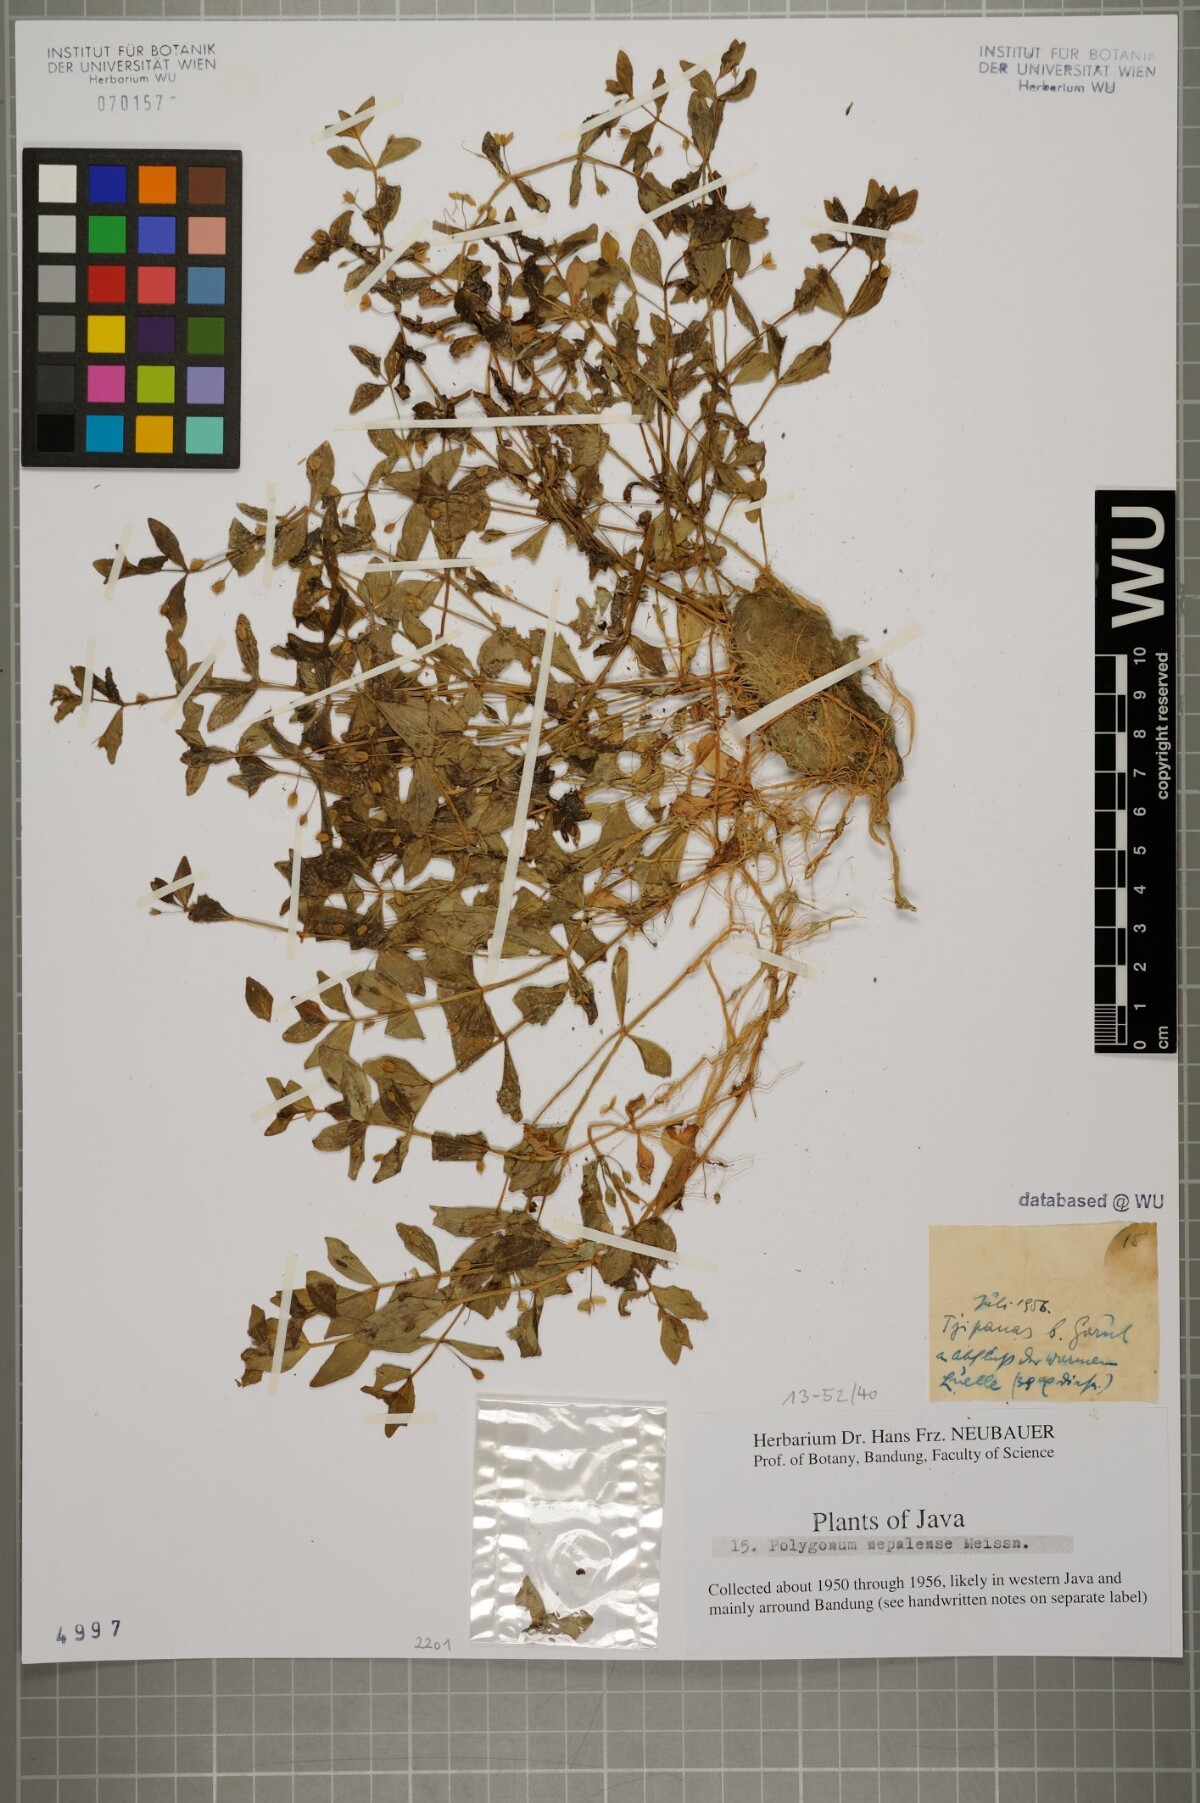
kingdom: Plantae
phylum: Tracheophyta
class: Magnoliopsida
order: Ericales
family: Primulaceae
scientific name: Primulaceae
